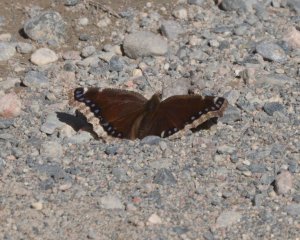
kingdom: Animalia
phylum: Arthropoda
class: Insecta
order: Lepidoptera
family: Nymphalidae
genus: Nymphalis
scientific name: Nymphalis antiopa
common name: Mourning Cloak
